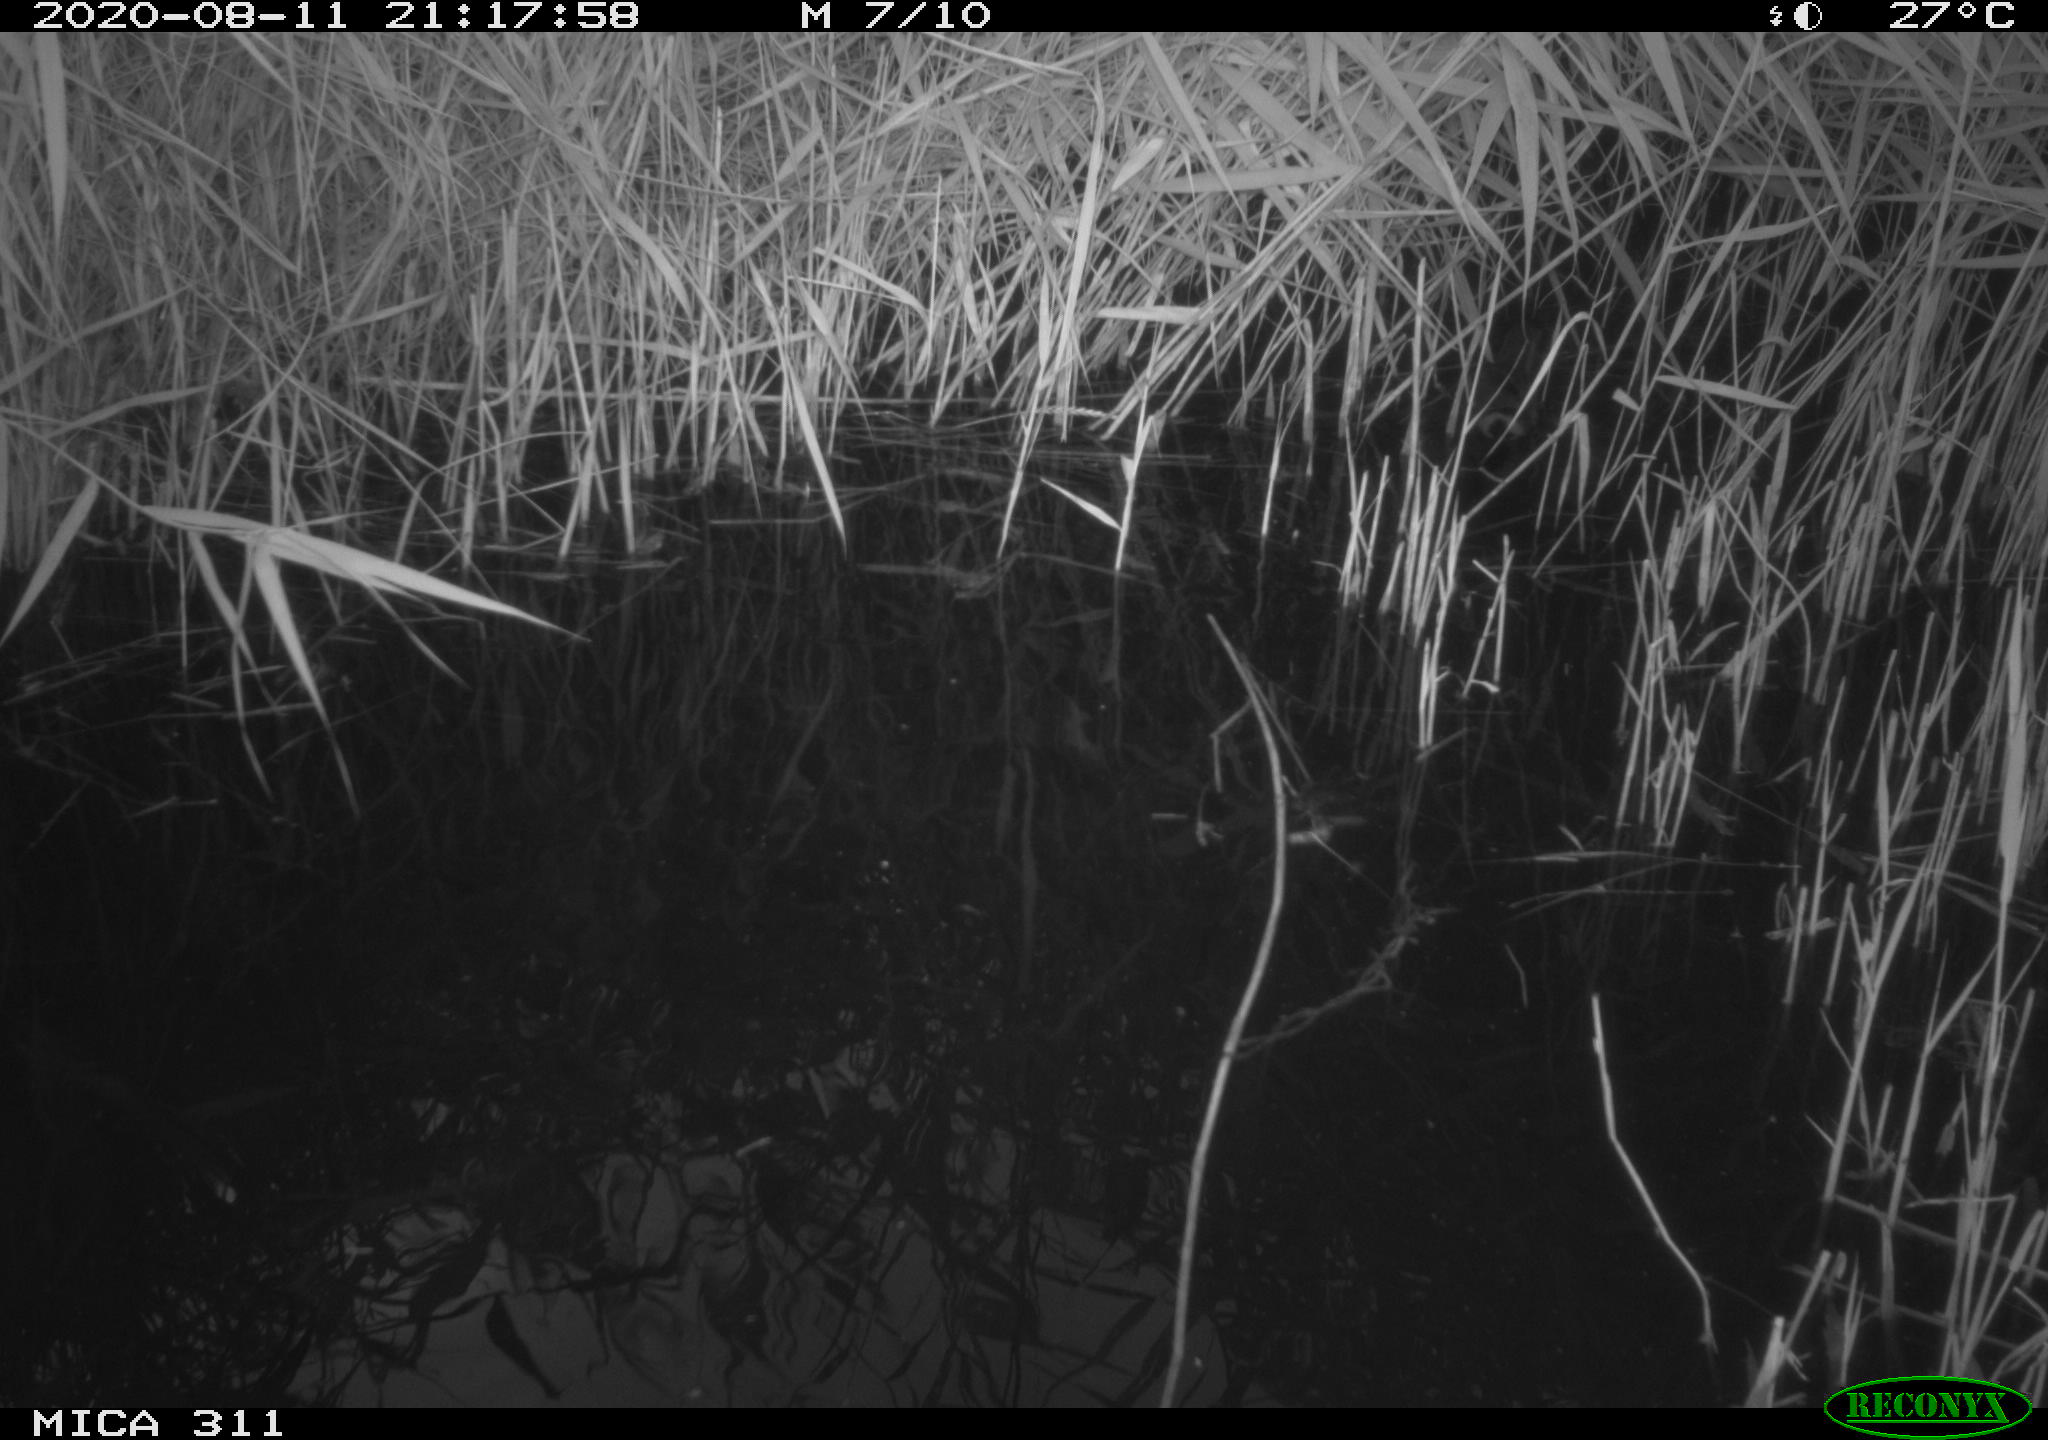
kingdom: Animalia
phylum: Chordata
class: Aves
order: Gruiformes
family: Rallidae
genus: Gallinula
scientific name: Gallinula chloropus
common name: Common moorhen
